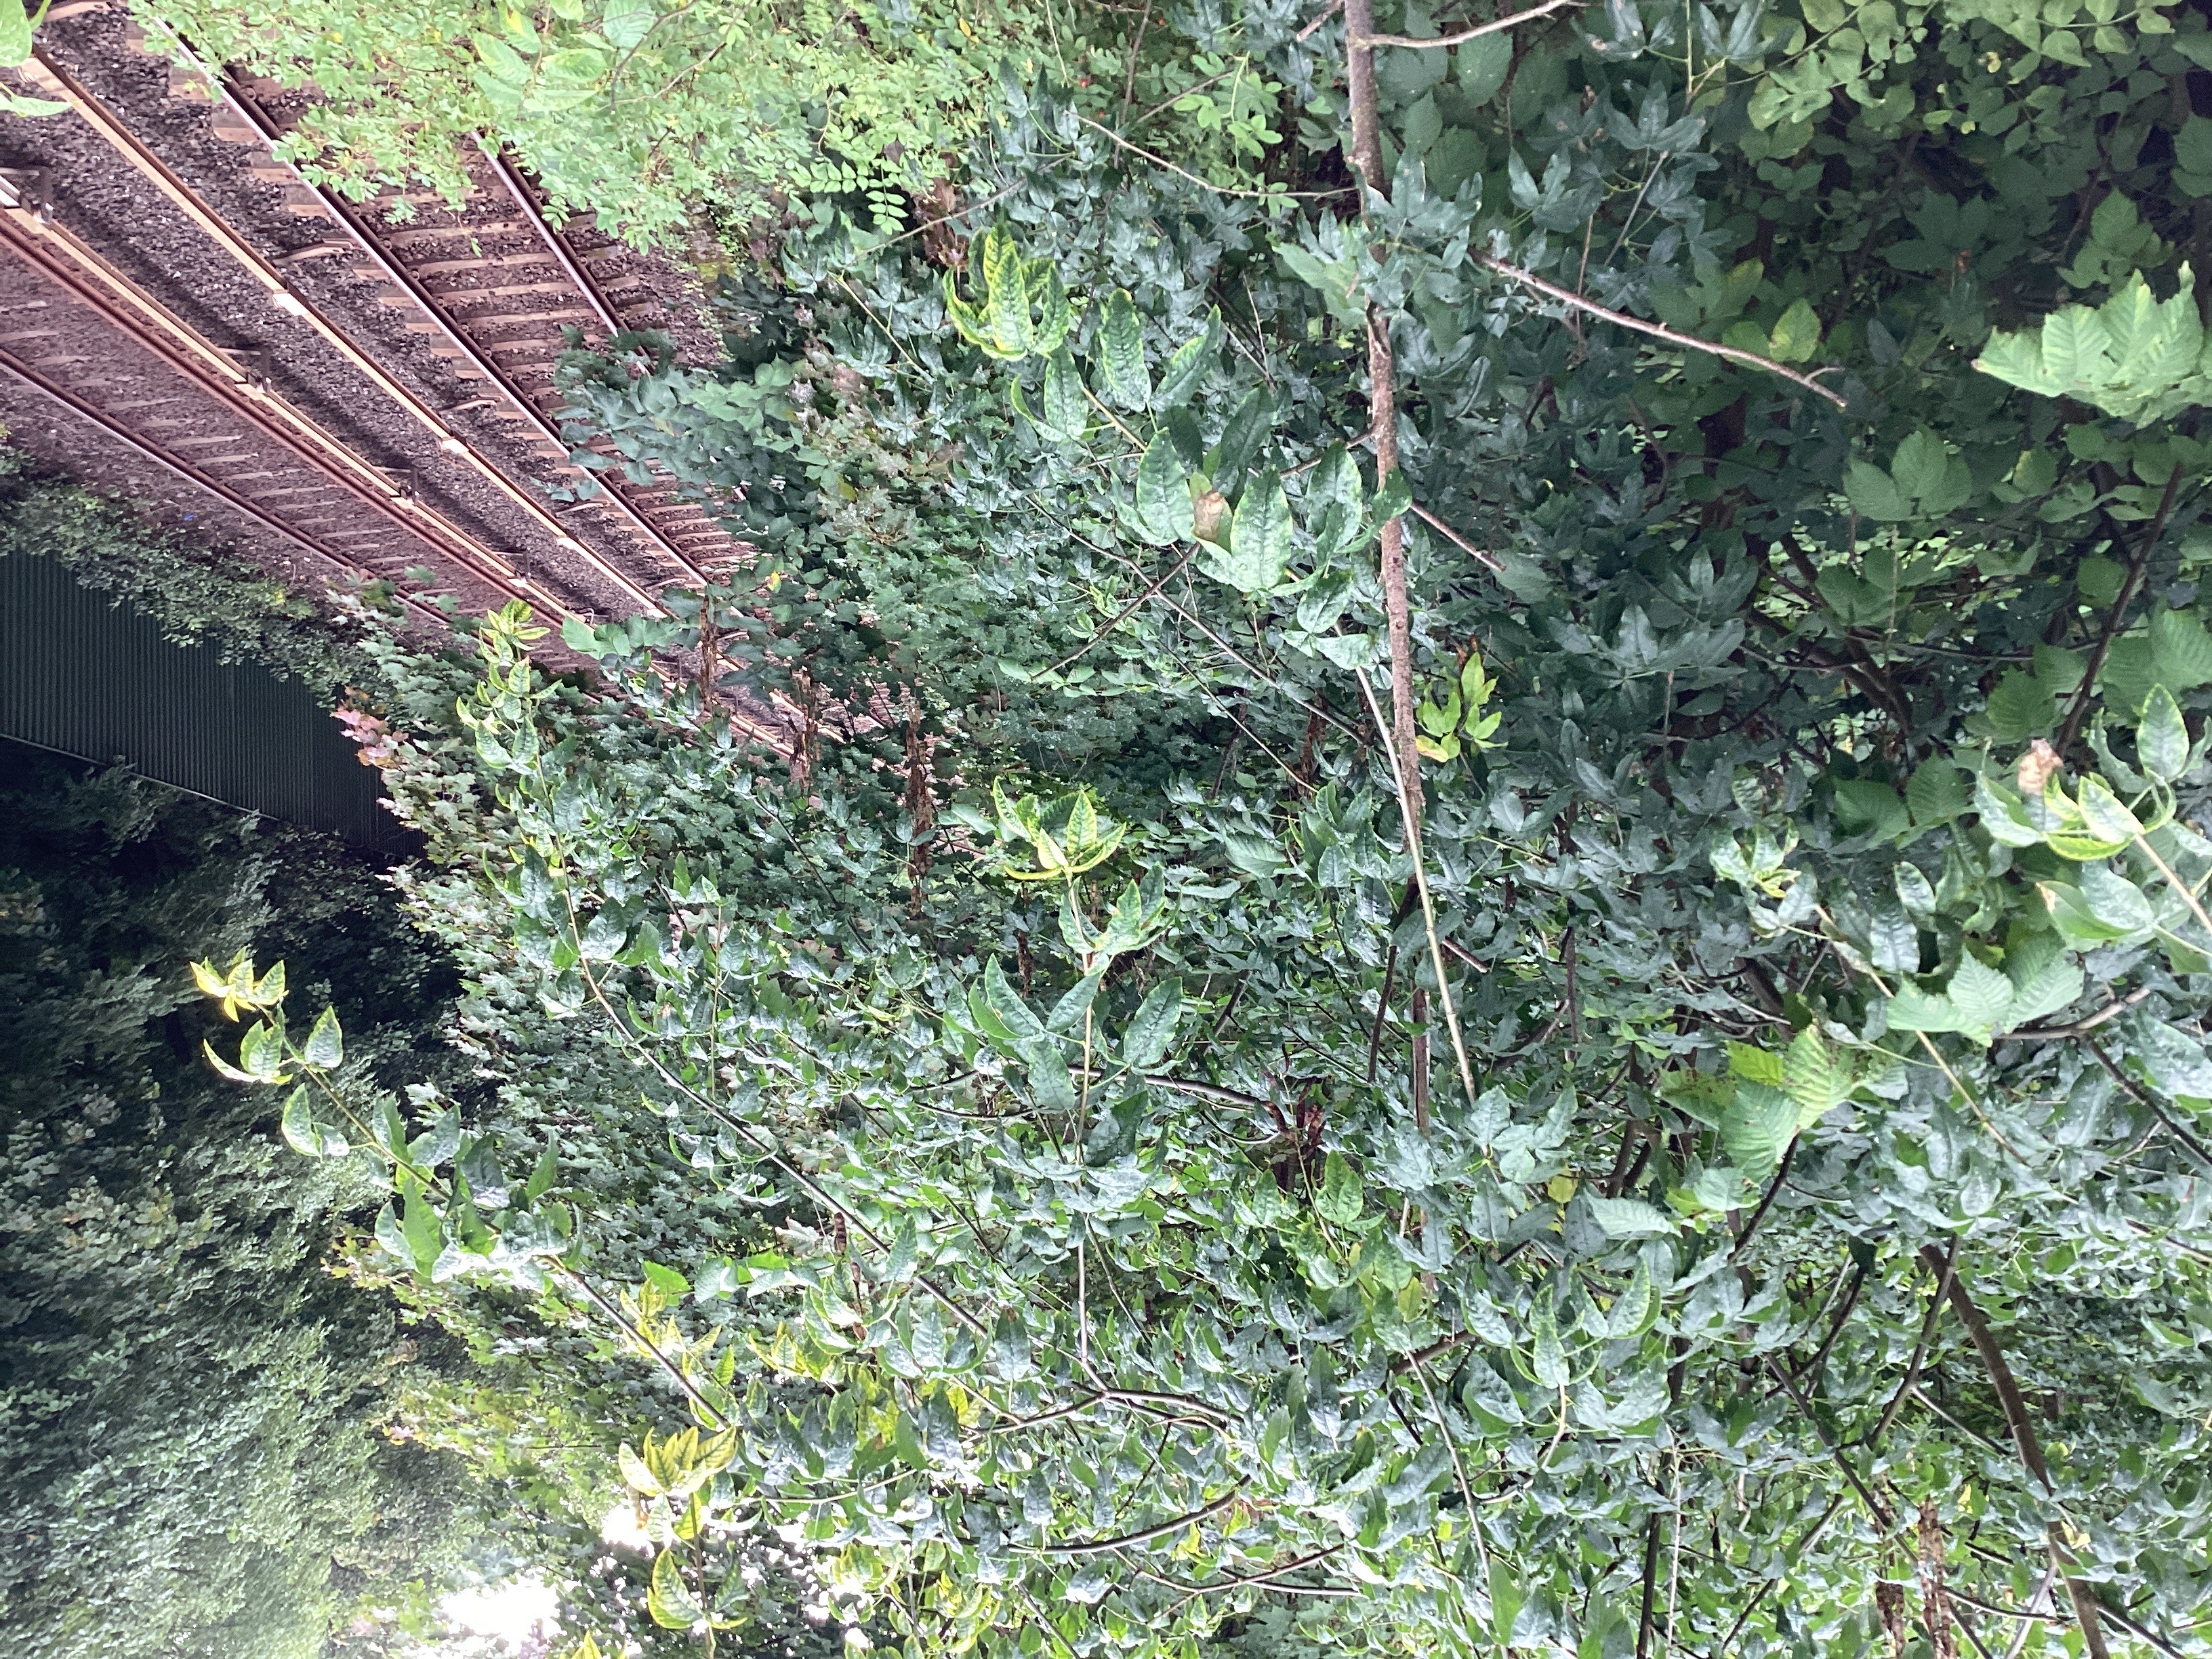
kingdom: Plantae
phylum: Tracheophyta
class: Magnoliopsida
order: Fabales
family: Fabaceae
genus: Laburnum
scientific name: Laburnum anagyroides
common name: gullregn
